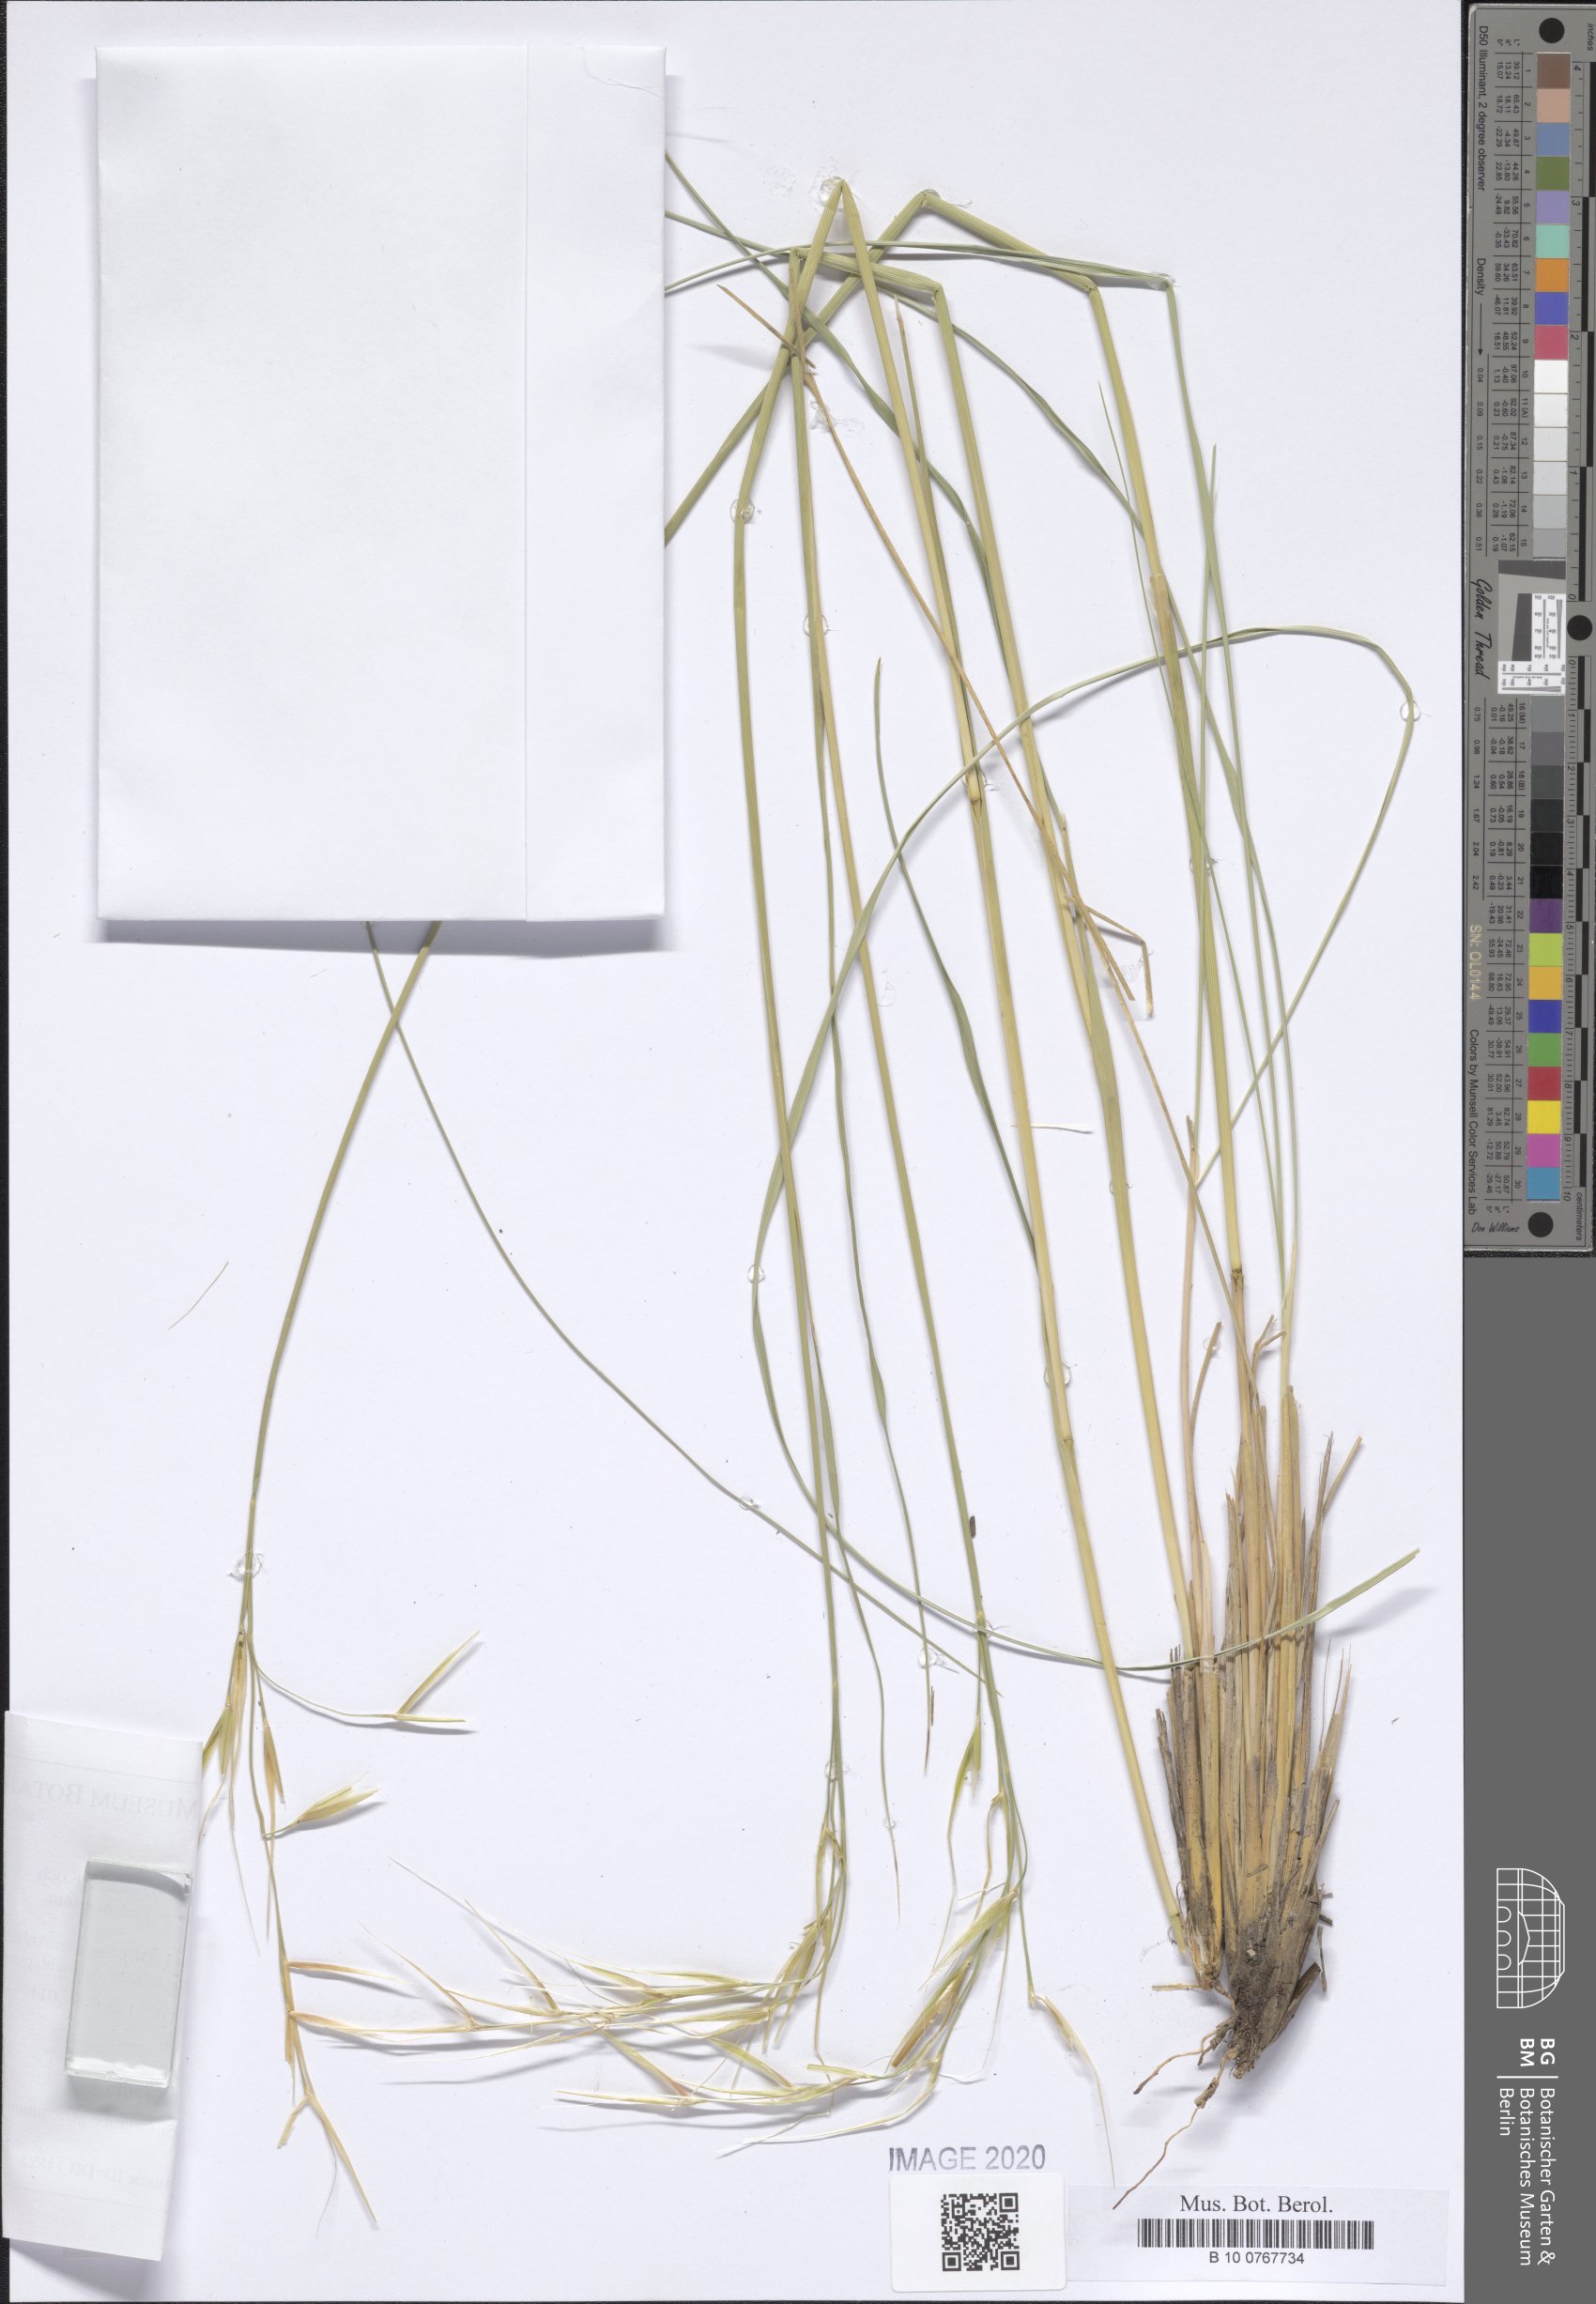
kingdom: Plantae
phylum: Tracheophyta
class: Liliopsida
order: Poales
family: Poaceae
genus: Stipa
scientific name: Stipa pennata
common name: European feather grass
